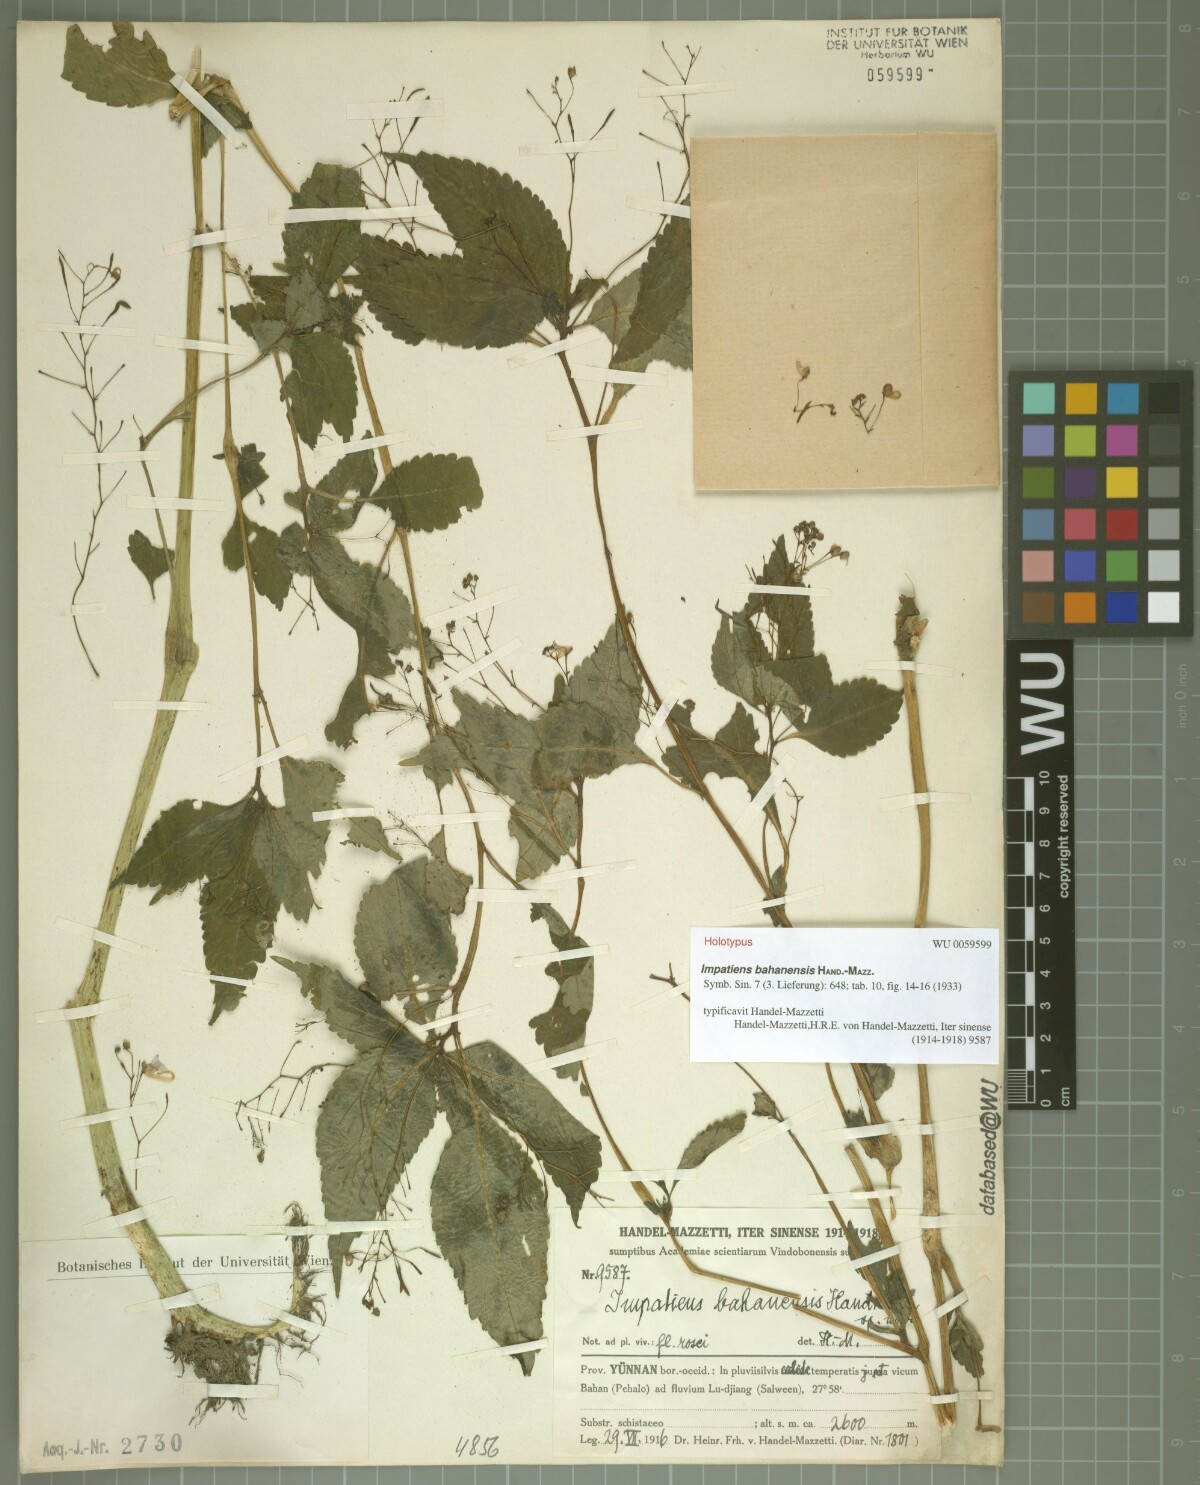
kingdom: Plantae
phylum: Tracheophyta
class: Magnoliopsida
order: Ericales
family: Balsaminaceae
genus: Impatiens
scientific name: Impatiens bahanensis
